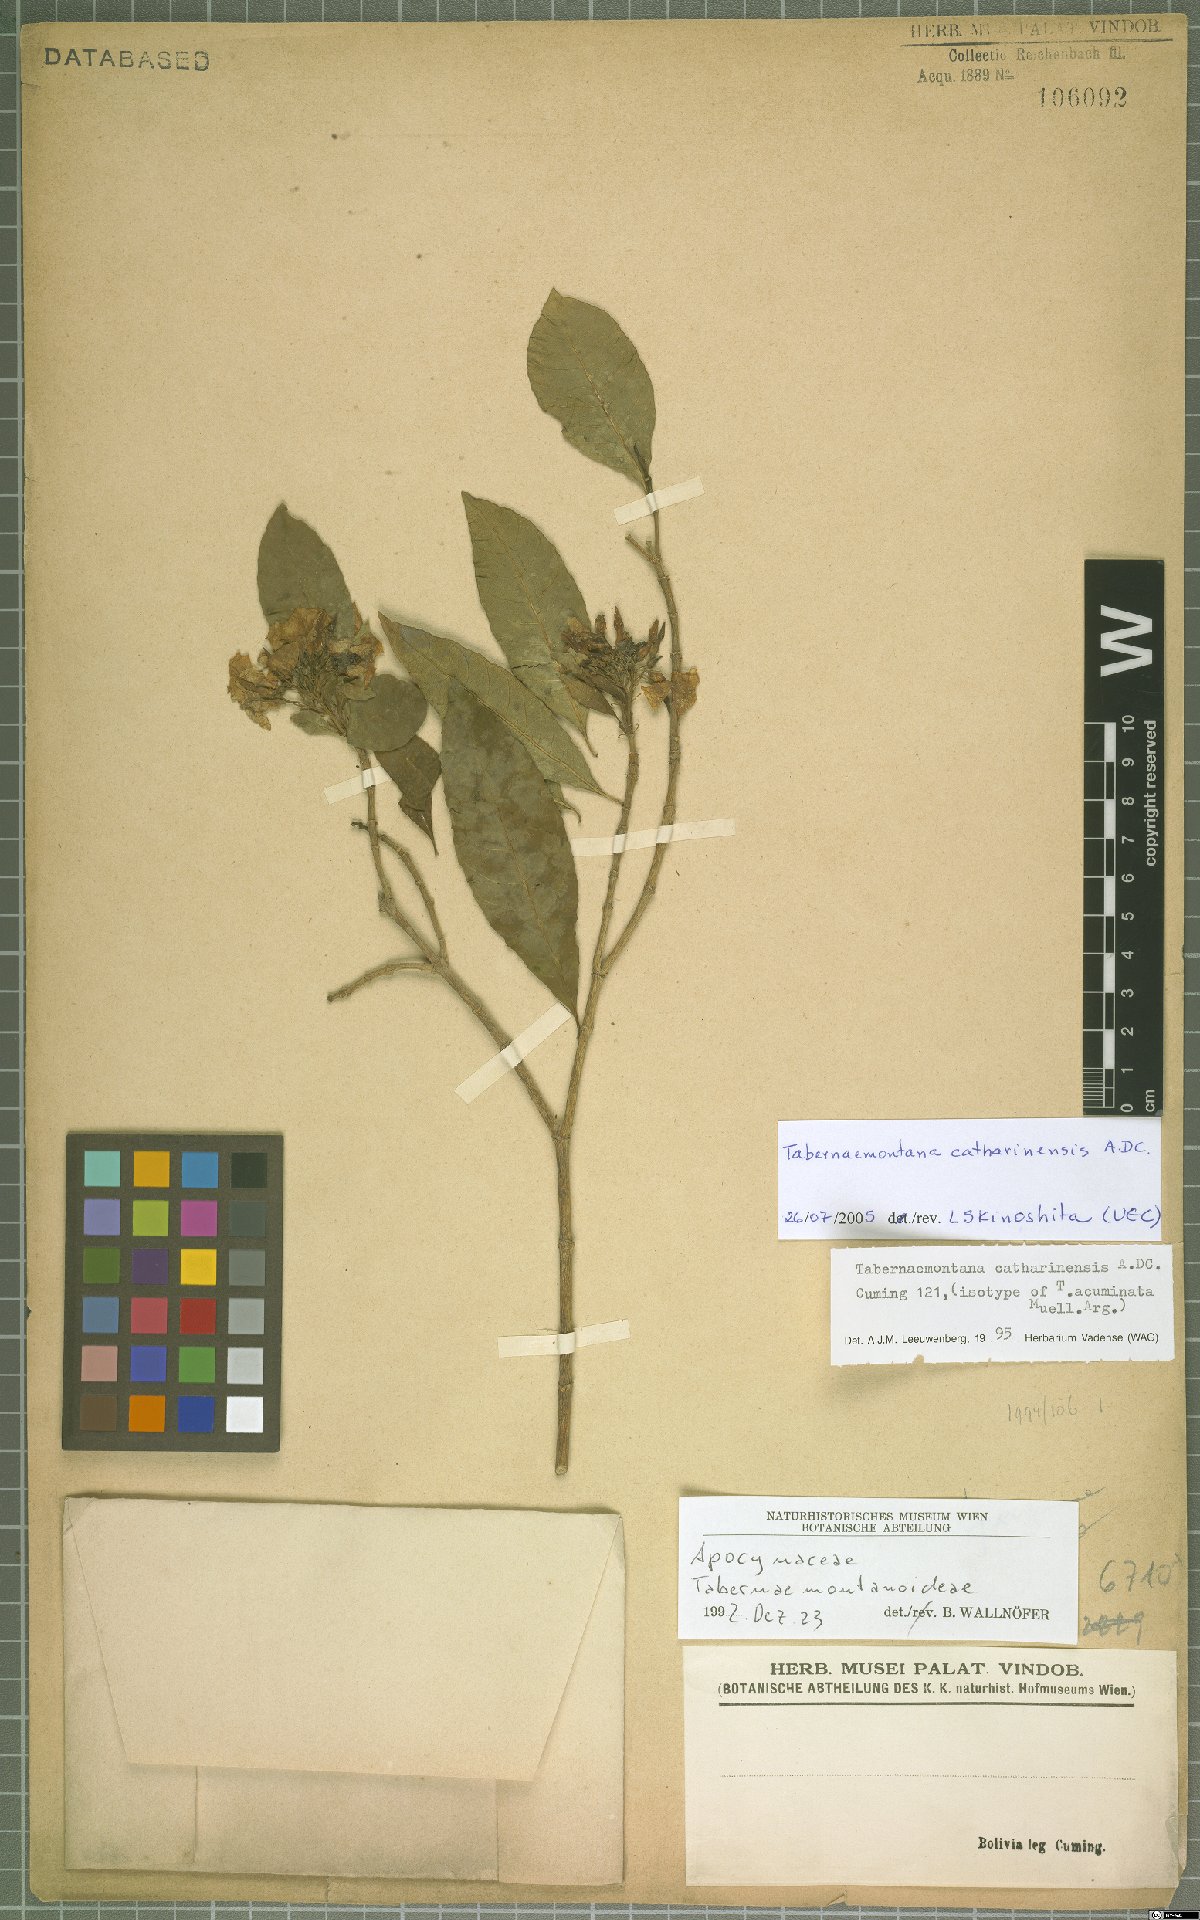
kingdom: Plantae
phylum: Tracheophyta
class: Magnoliopsida
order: Gentianales
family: Apocynaceae
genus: Tabernaemontana
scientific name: Tabernaemontana catharinensis
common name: Pinwheel-flower
